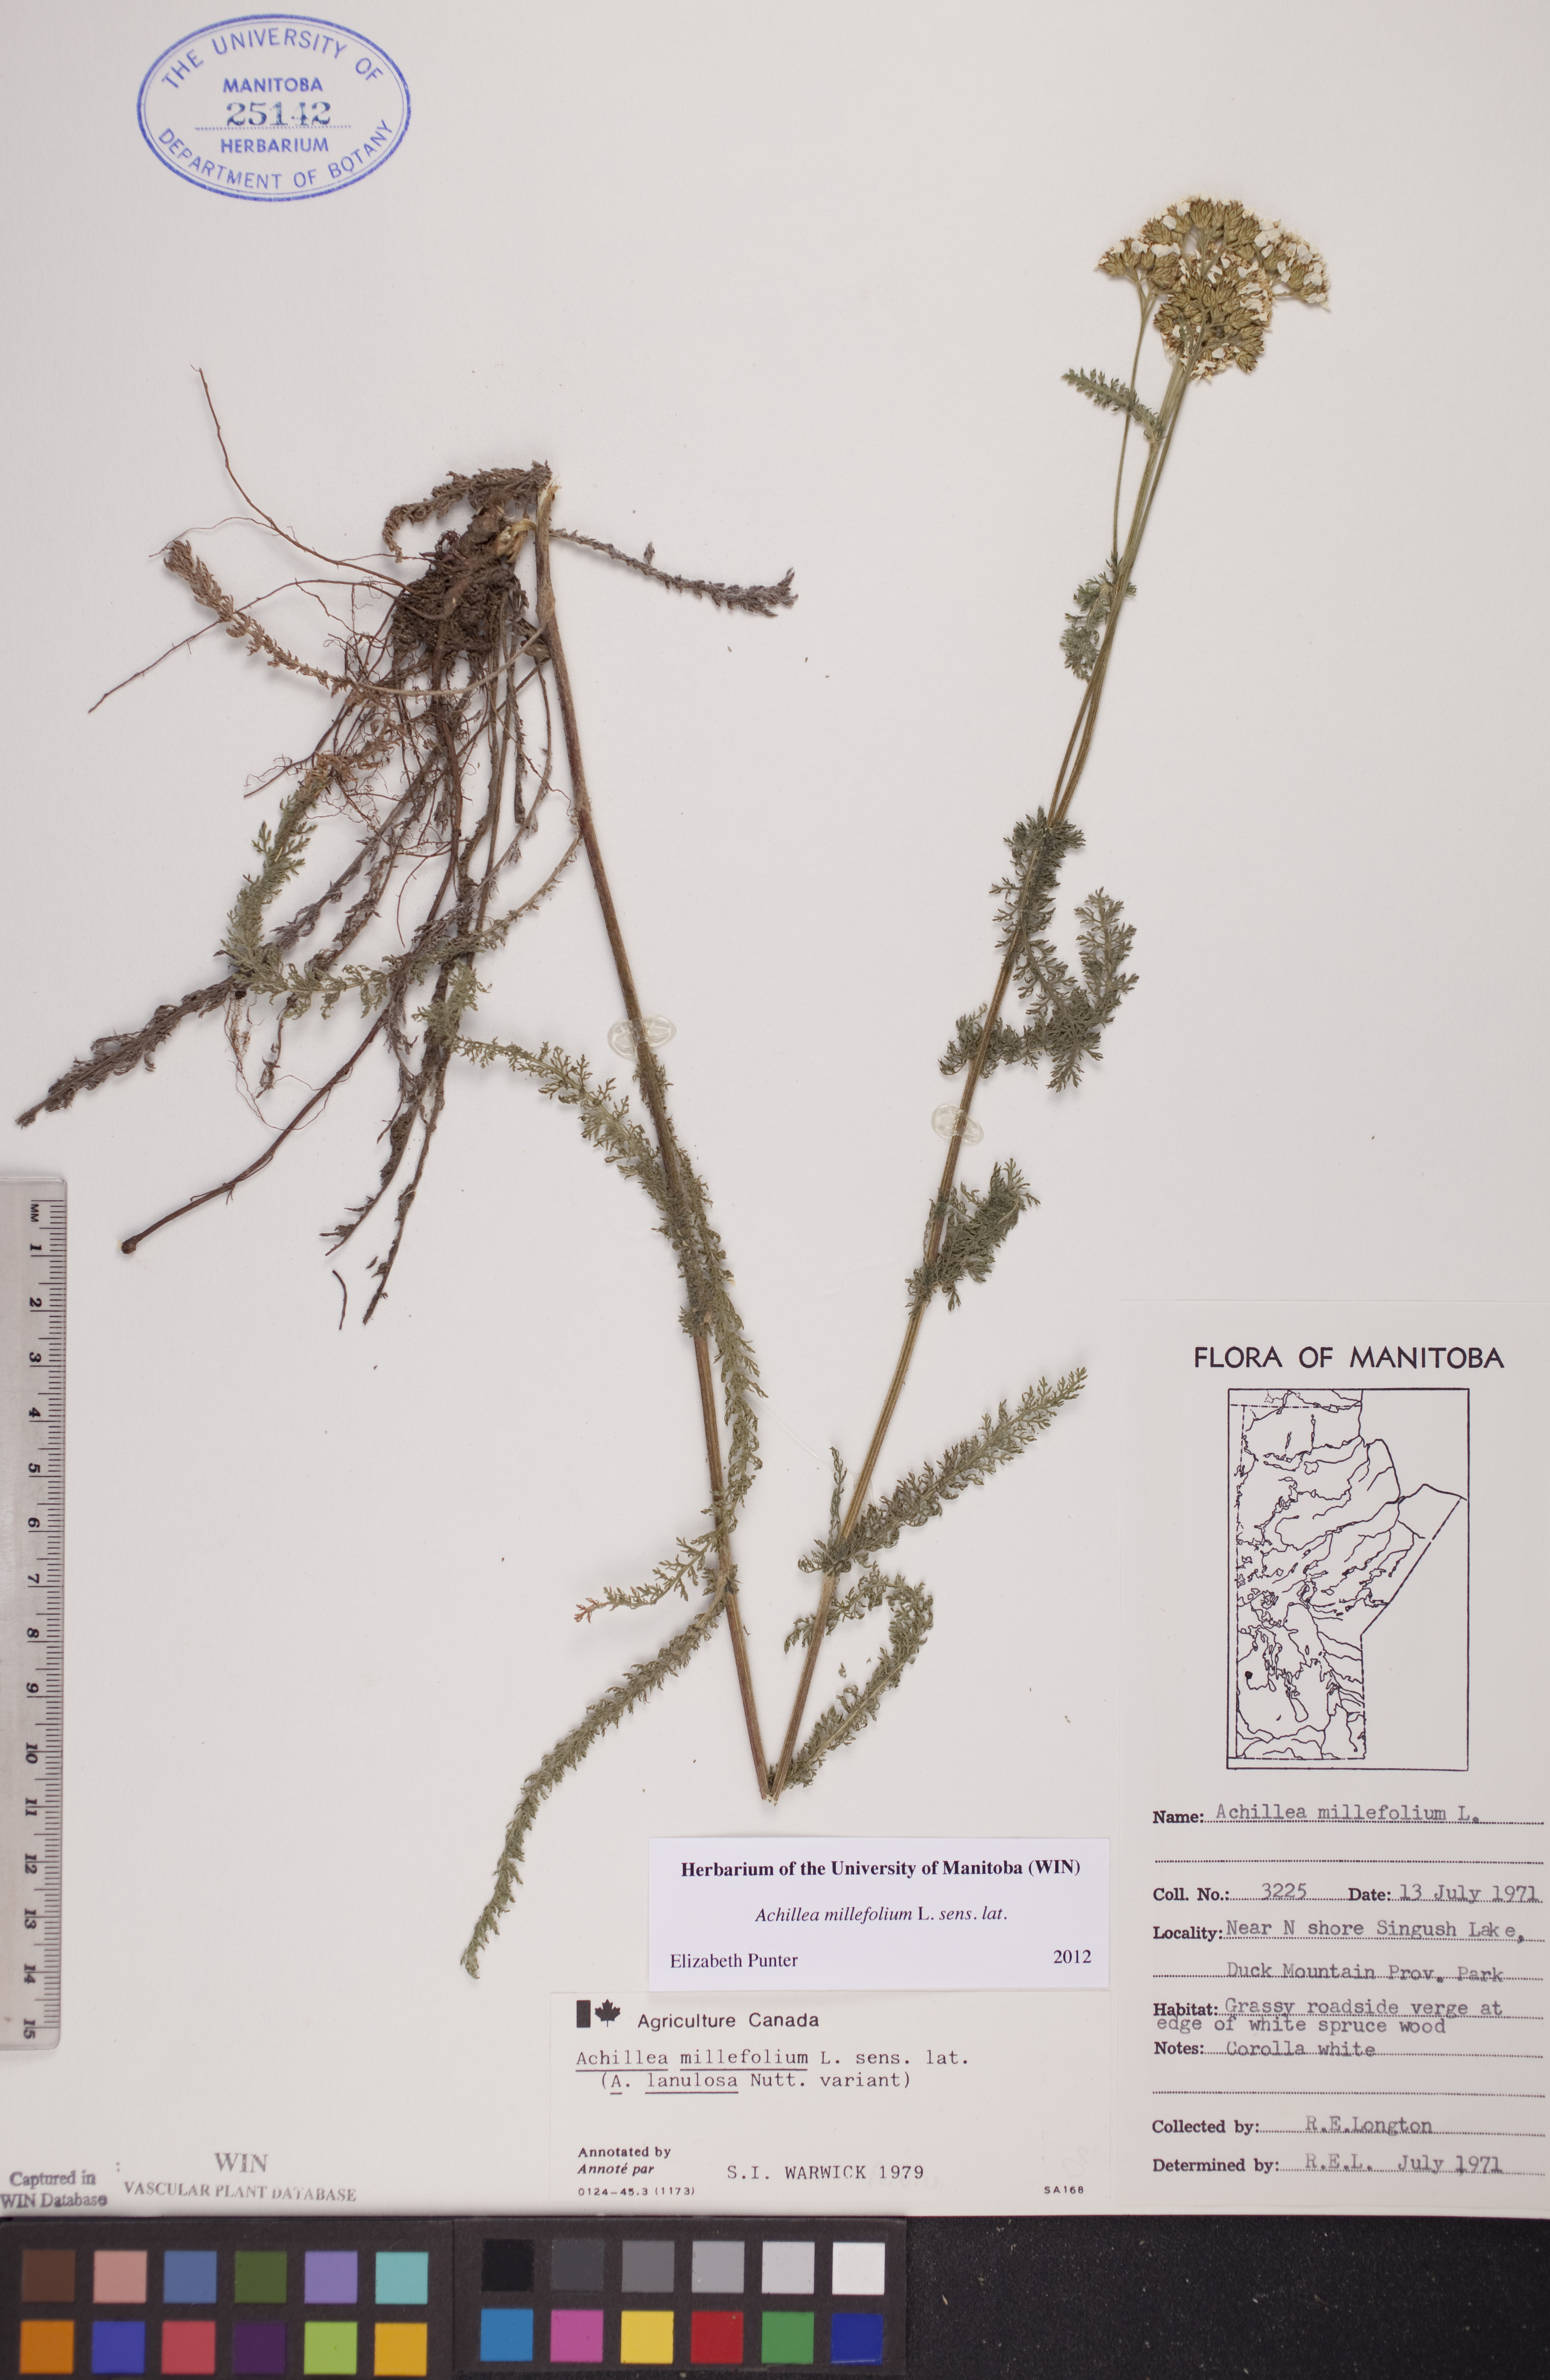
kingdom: Plantae
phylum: Tracheophyta
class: Magnoliopsida
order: Asterales
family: Asteraceae
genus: Achillea
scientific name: Achillea millefolium
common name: Yarrow
